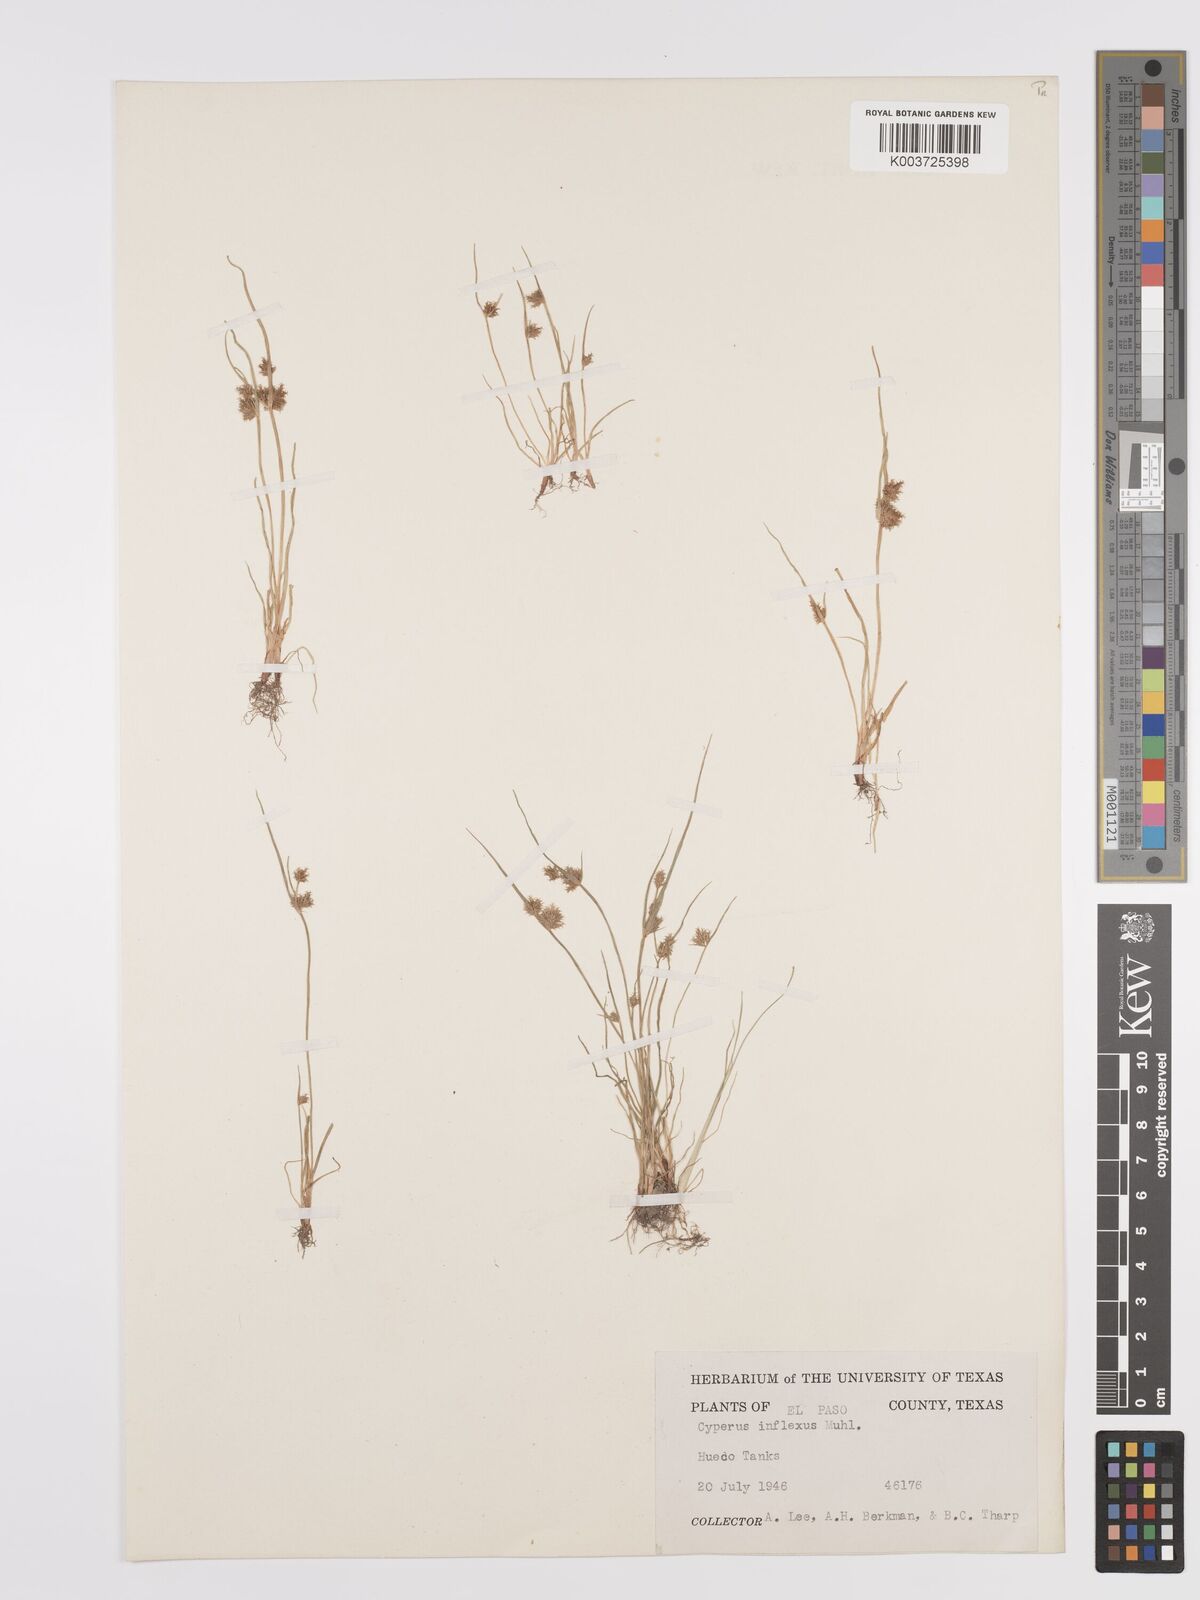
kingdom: Plantae
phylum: Tracheophyta
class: Liliopsida
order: Poales
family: Cyperaceae
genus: Cyperus
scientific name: Cyperus squarrosus
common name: Awned cyperus
